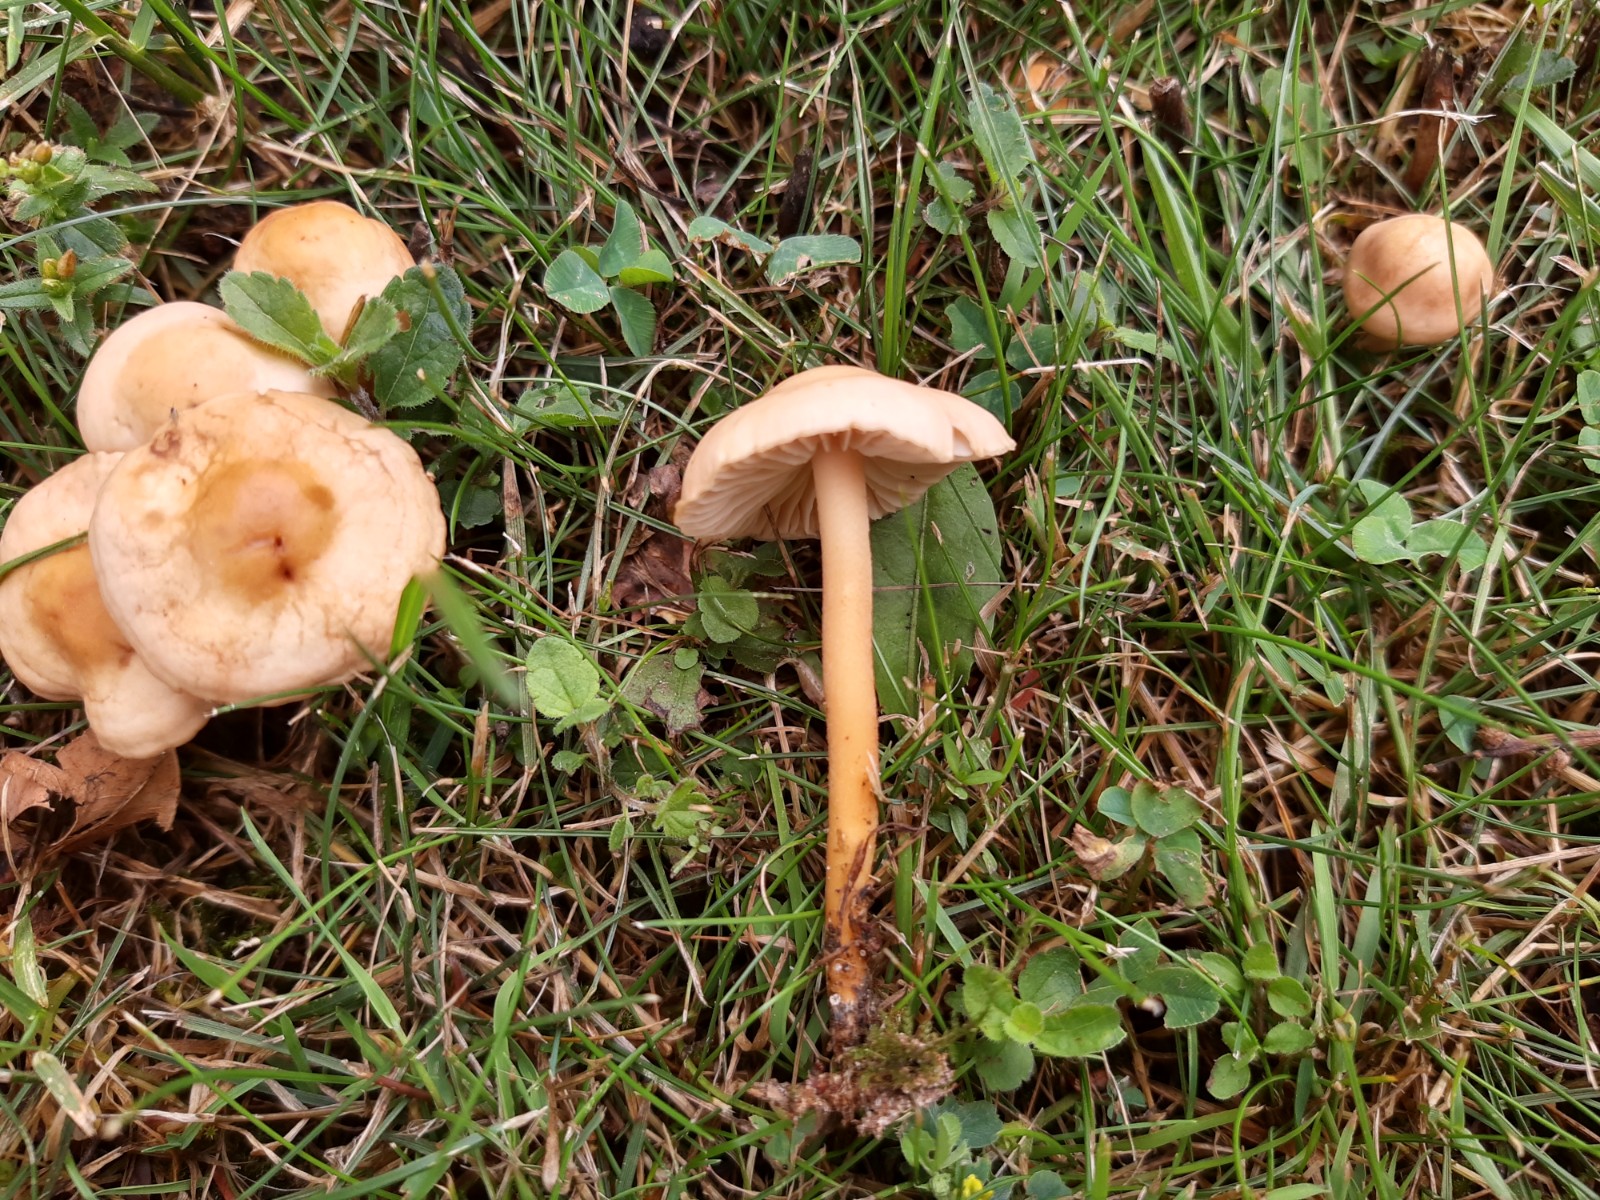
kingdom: Fungi
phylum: Basidiomycota
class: Agaricomycetes
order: Agaricales
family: Marasmiaceae
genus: Marasmius
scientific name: Marasmius oreades
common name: elledans-bruskhat
